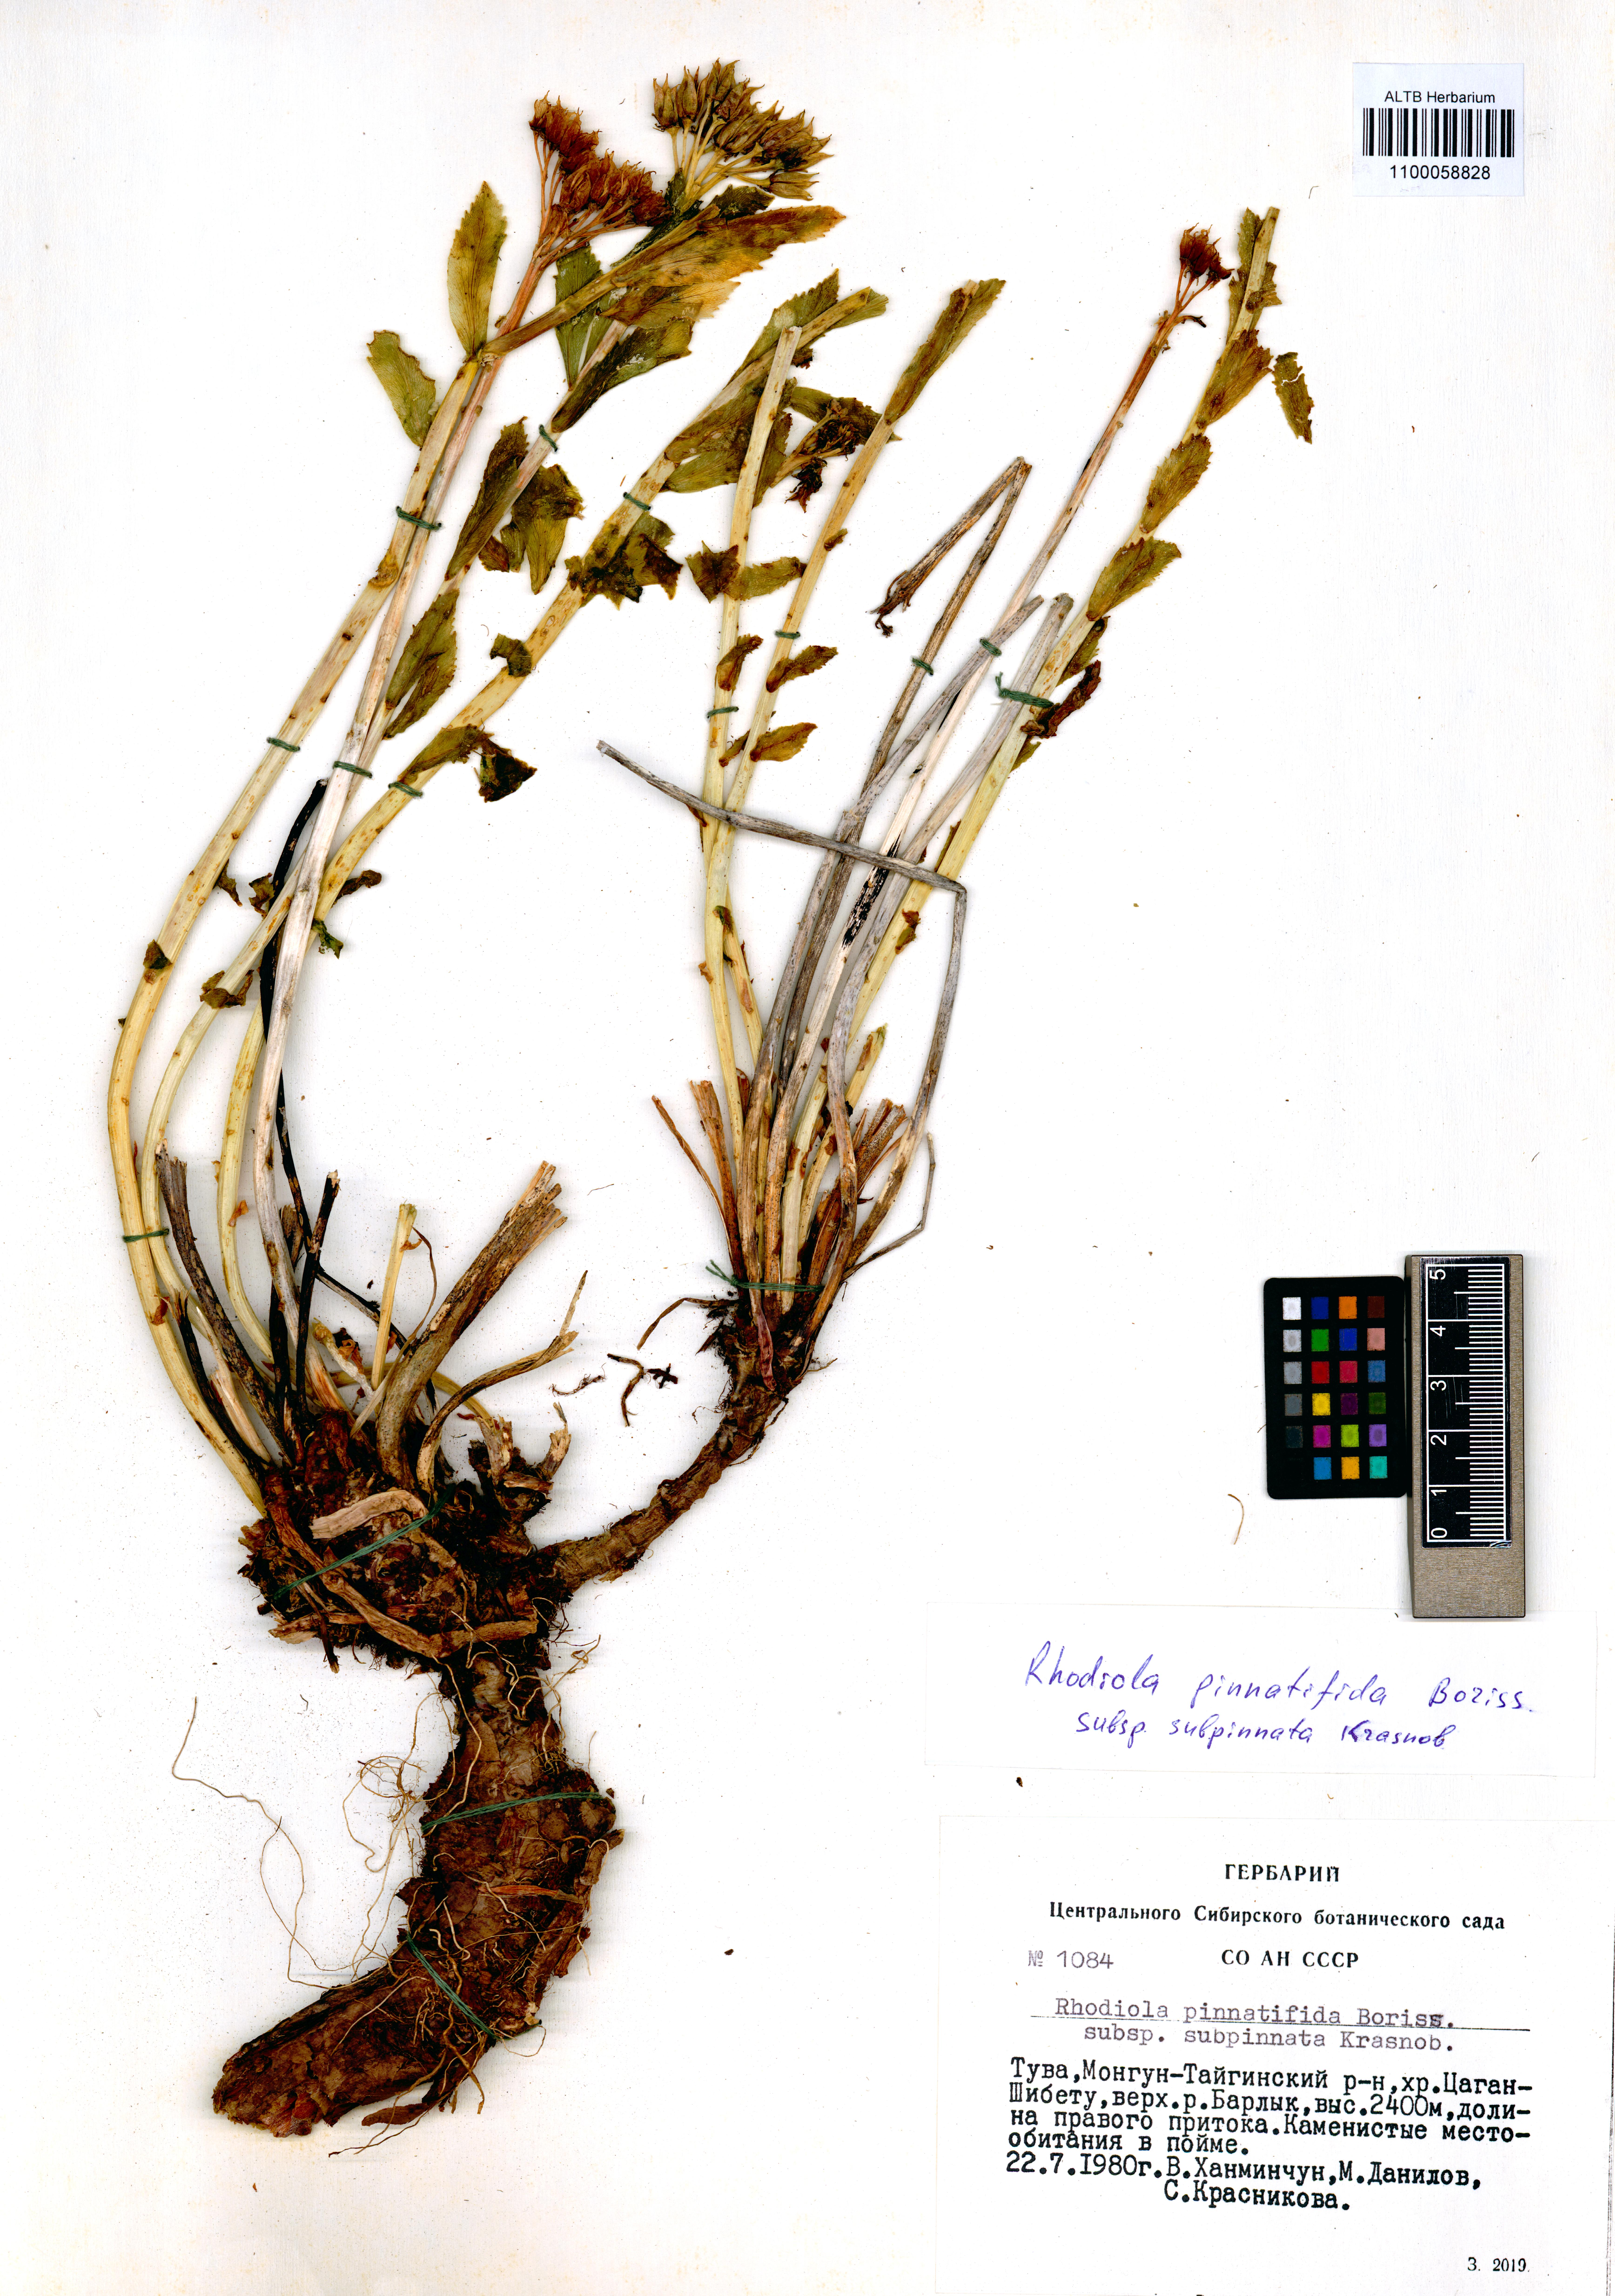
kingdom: Plantae
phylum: Tracheophyta
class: Magnoliopsida
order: Saxifragales
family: Crassulaceae
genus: Rhodiola
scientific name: Rhodiola stephani
